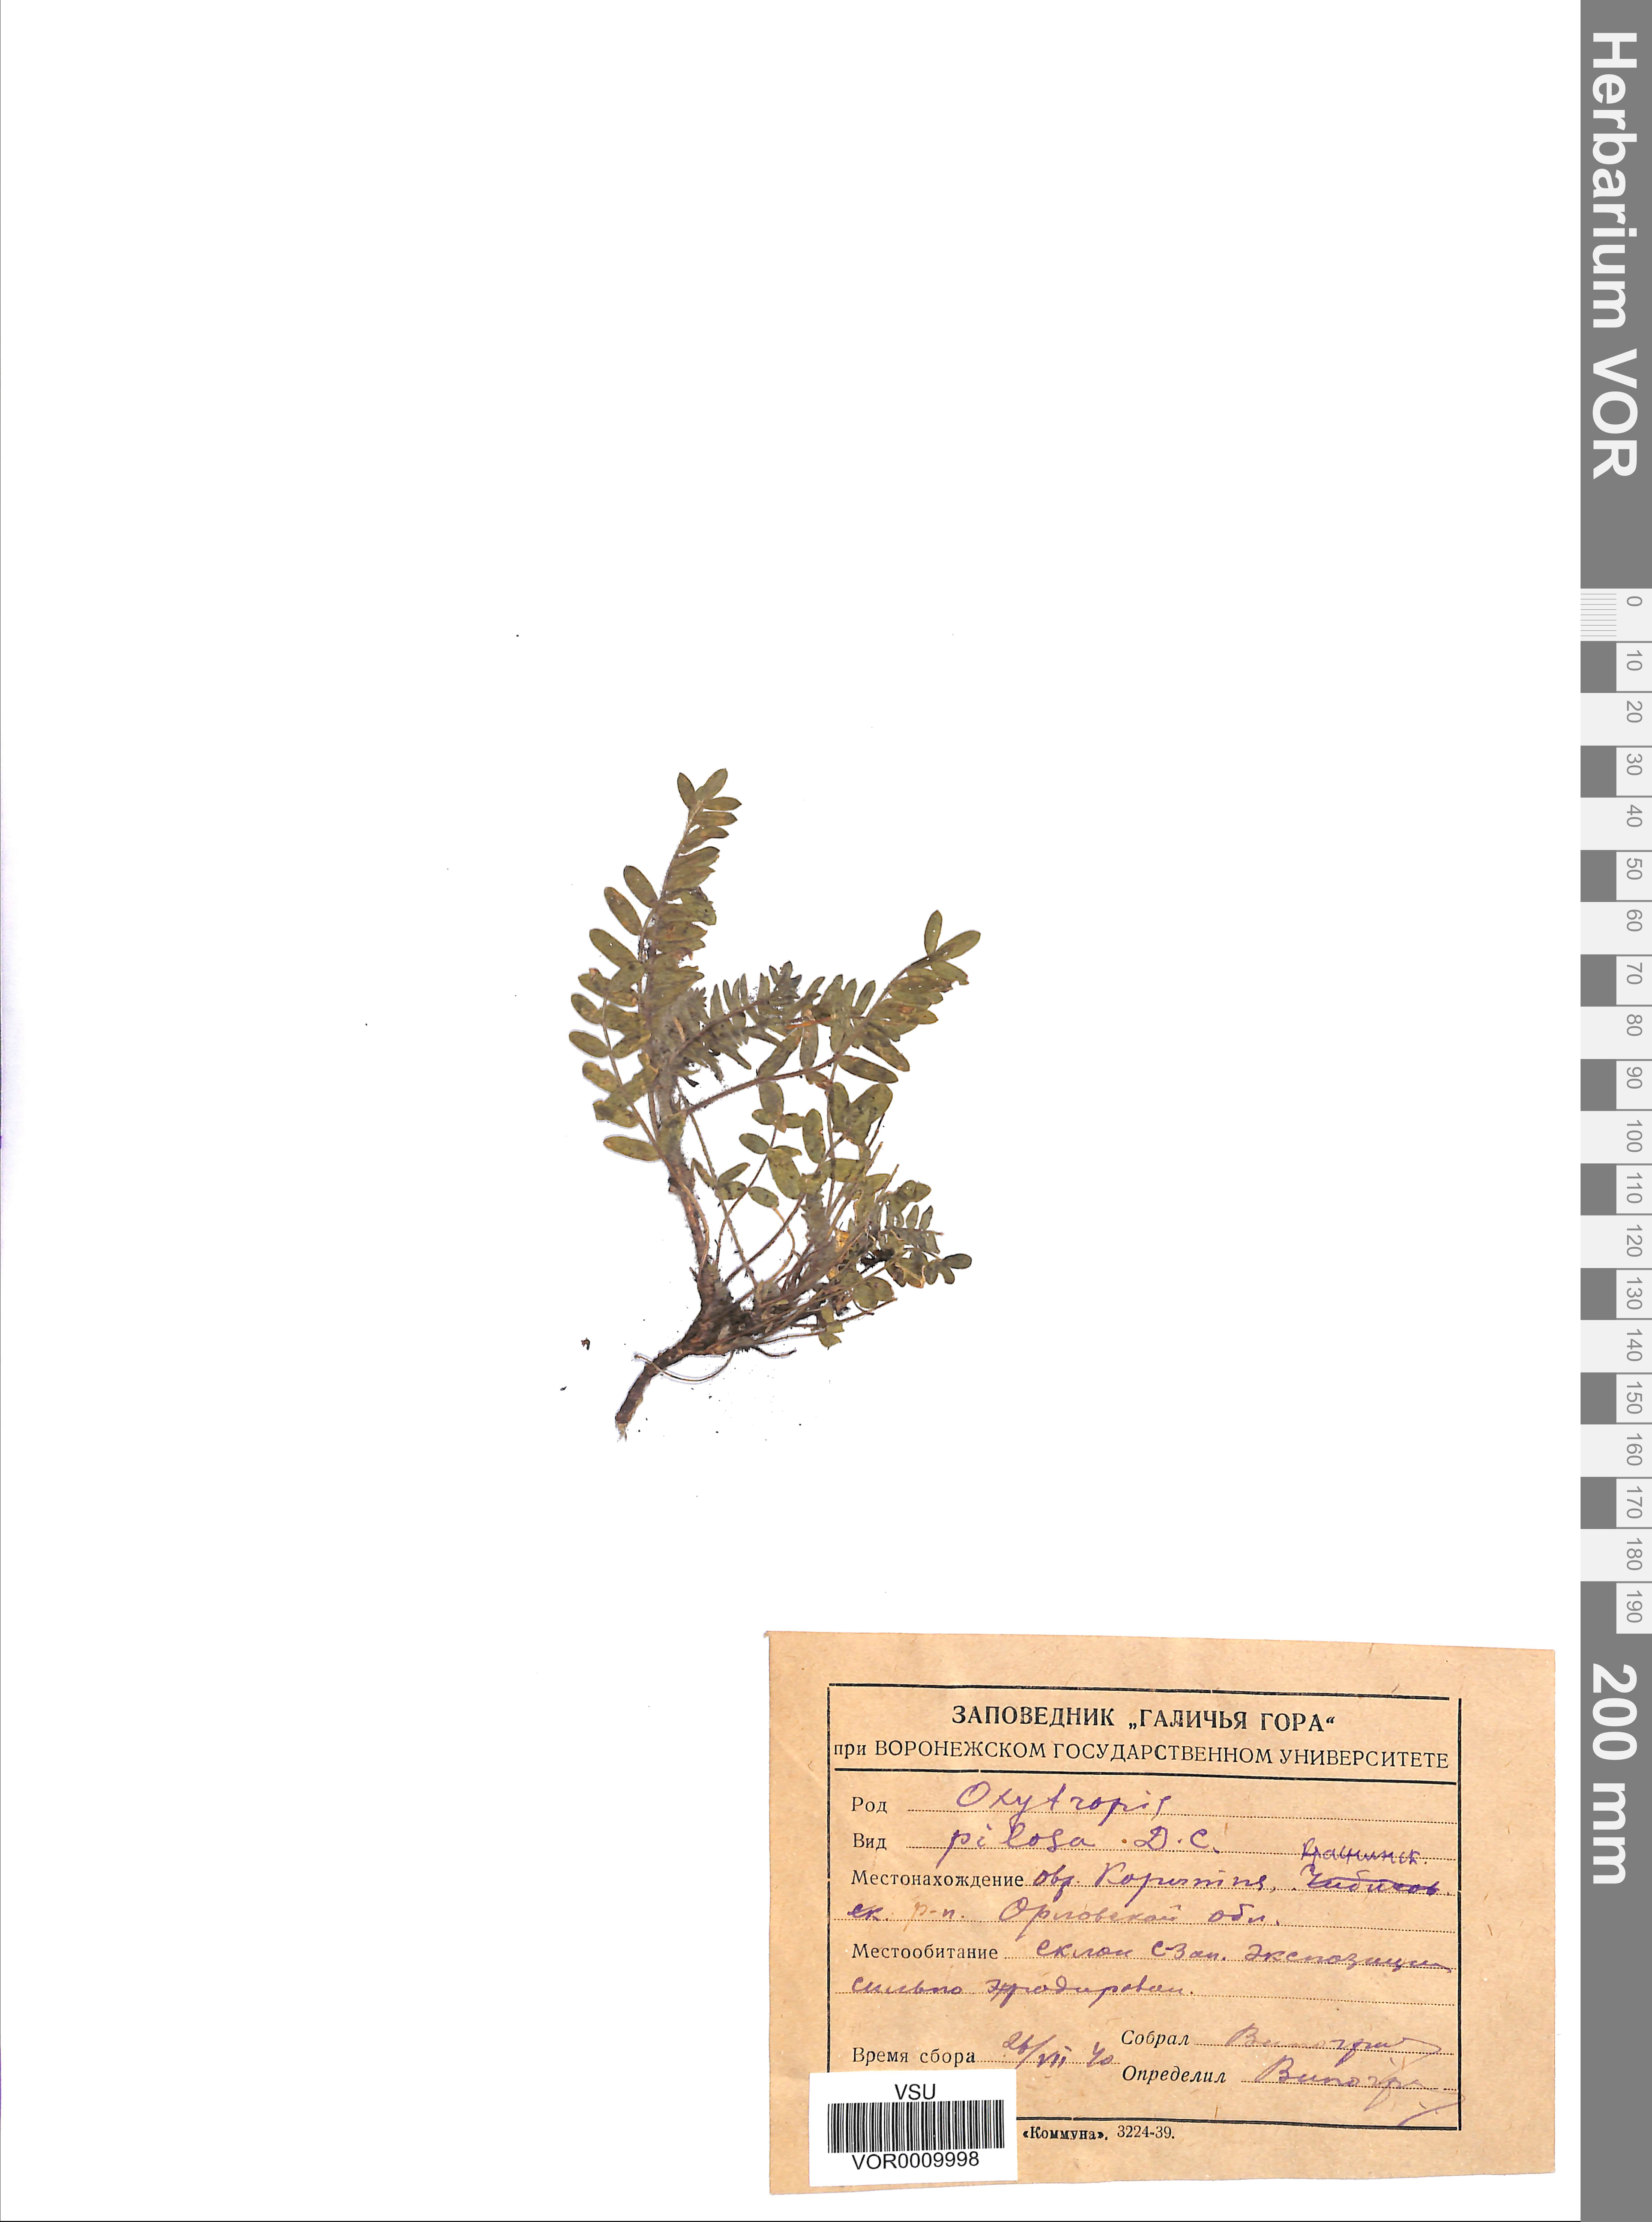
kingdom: Plantae
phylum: Tracheophyta
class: Magnoliopsida
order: Fabales
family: Fabaceae
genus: Oxytropis
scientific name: Oxytropis pilosa
